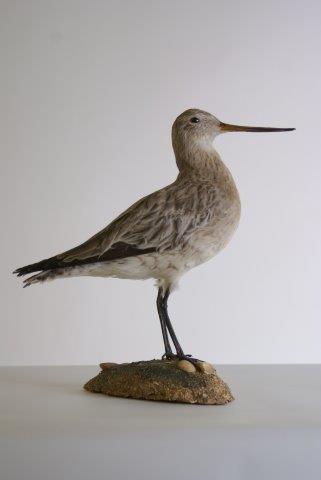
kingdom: Animalia
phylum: Chordata
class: Aves
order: Charadriiformes
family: Scolopacidae
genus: Limosa
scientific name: Limosa lapponica
